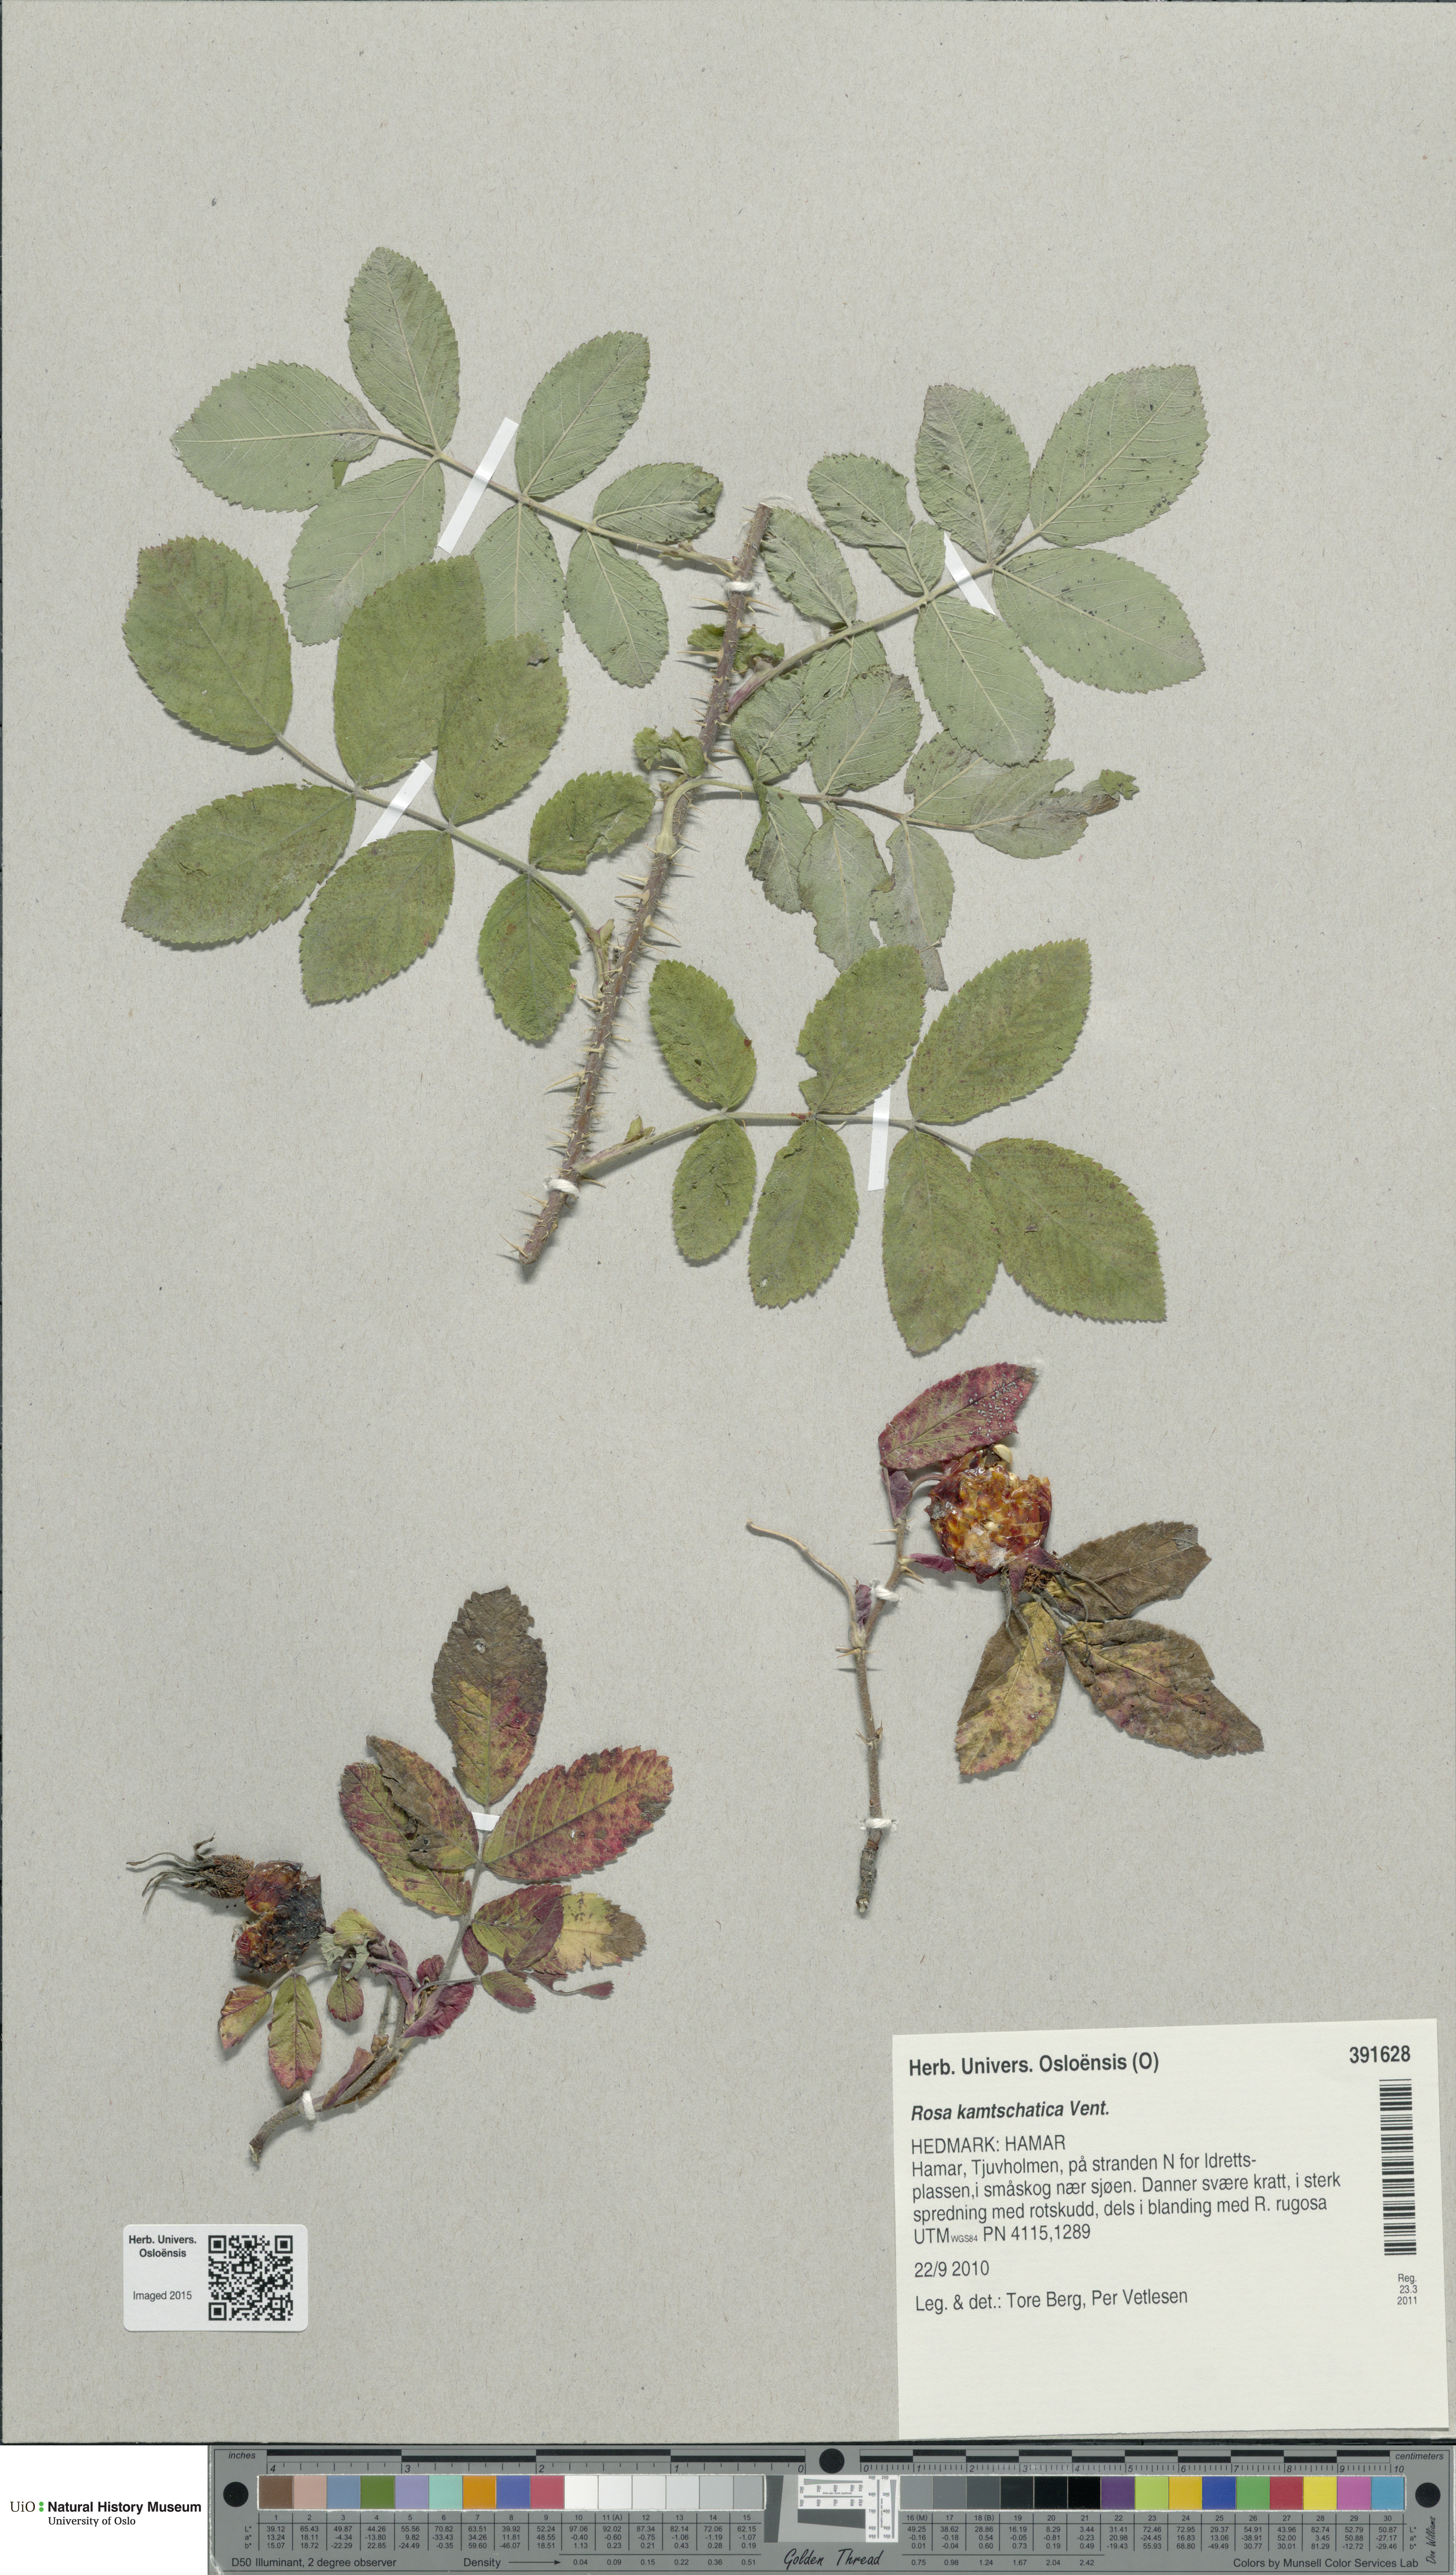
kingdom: Plantae
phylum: Tracheophyta
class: Magnoliopsida
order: Rosales
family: Rosaceae
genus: Rosa
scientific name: Rosa spaethiana
